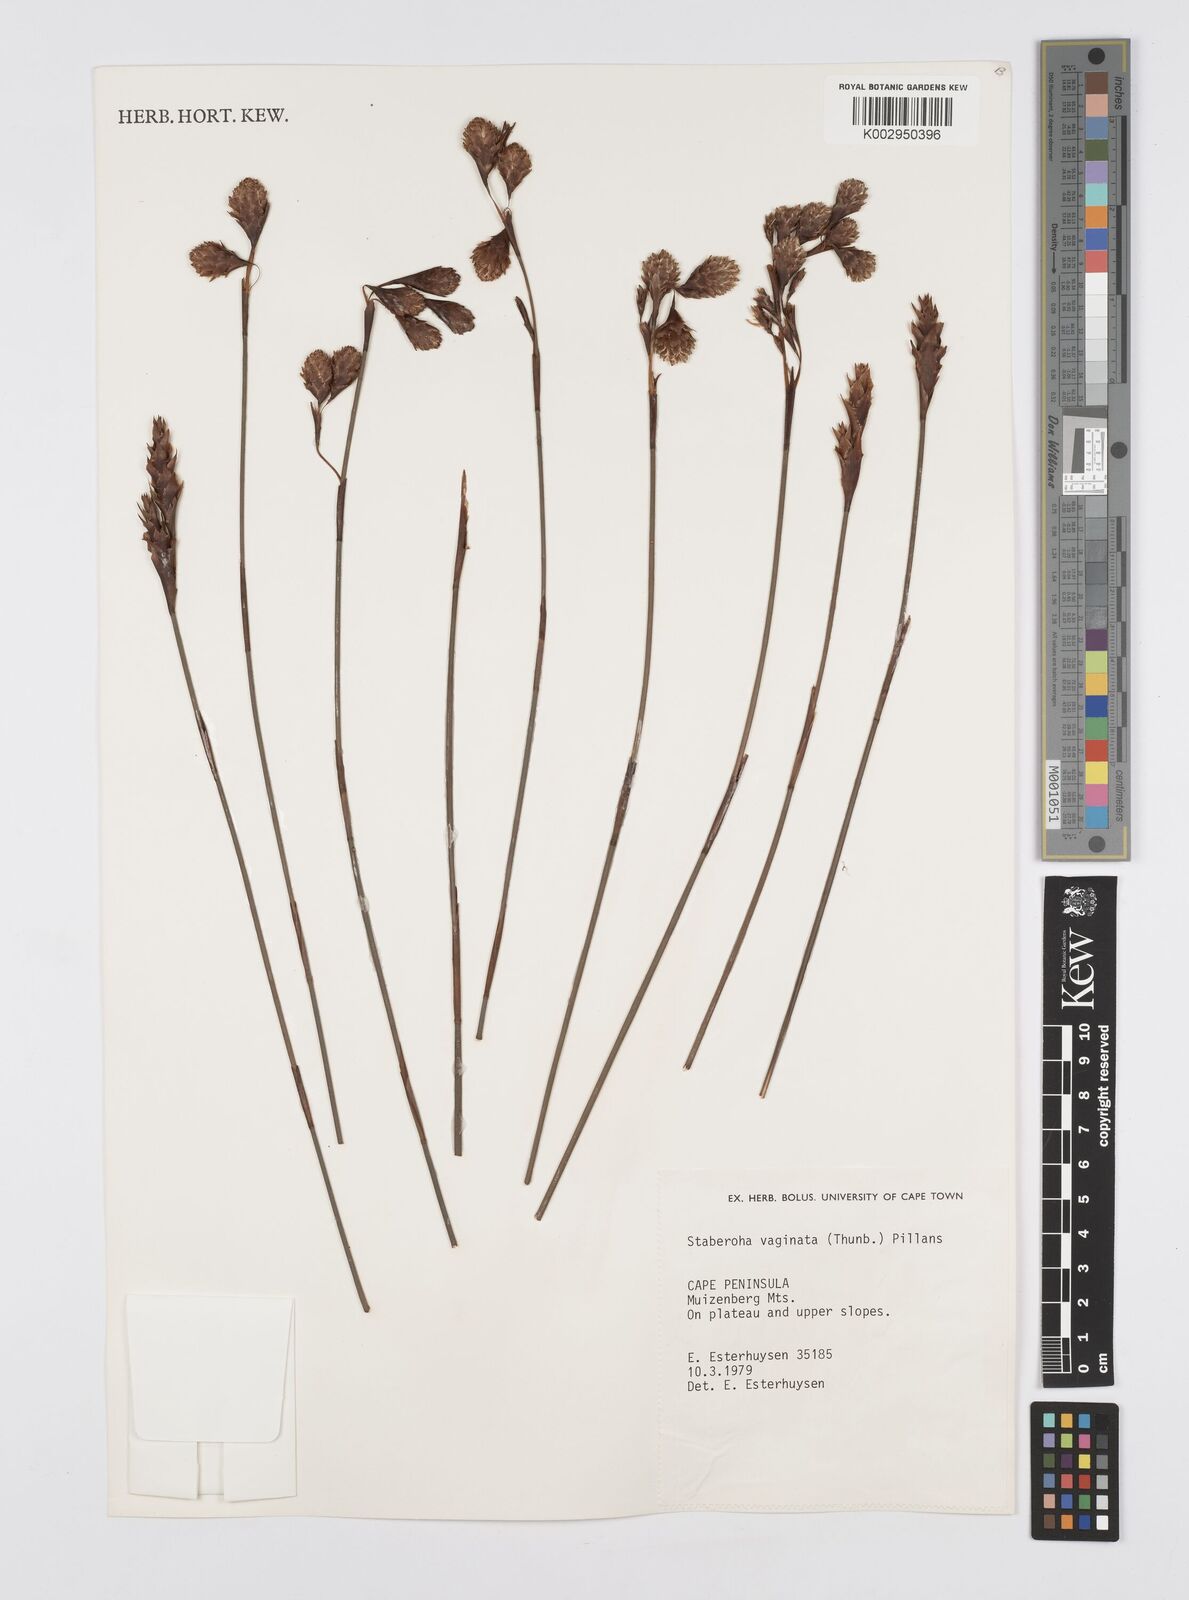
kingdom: Plantae
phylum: Tracheophyta
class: Liliopsida
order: Poales
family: Restionaceae
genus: Staberoha
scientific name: Staberoha vaginata
